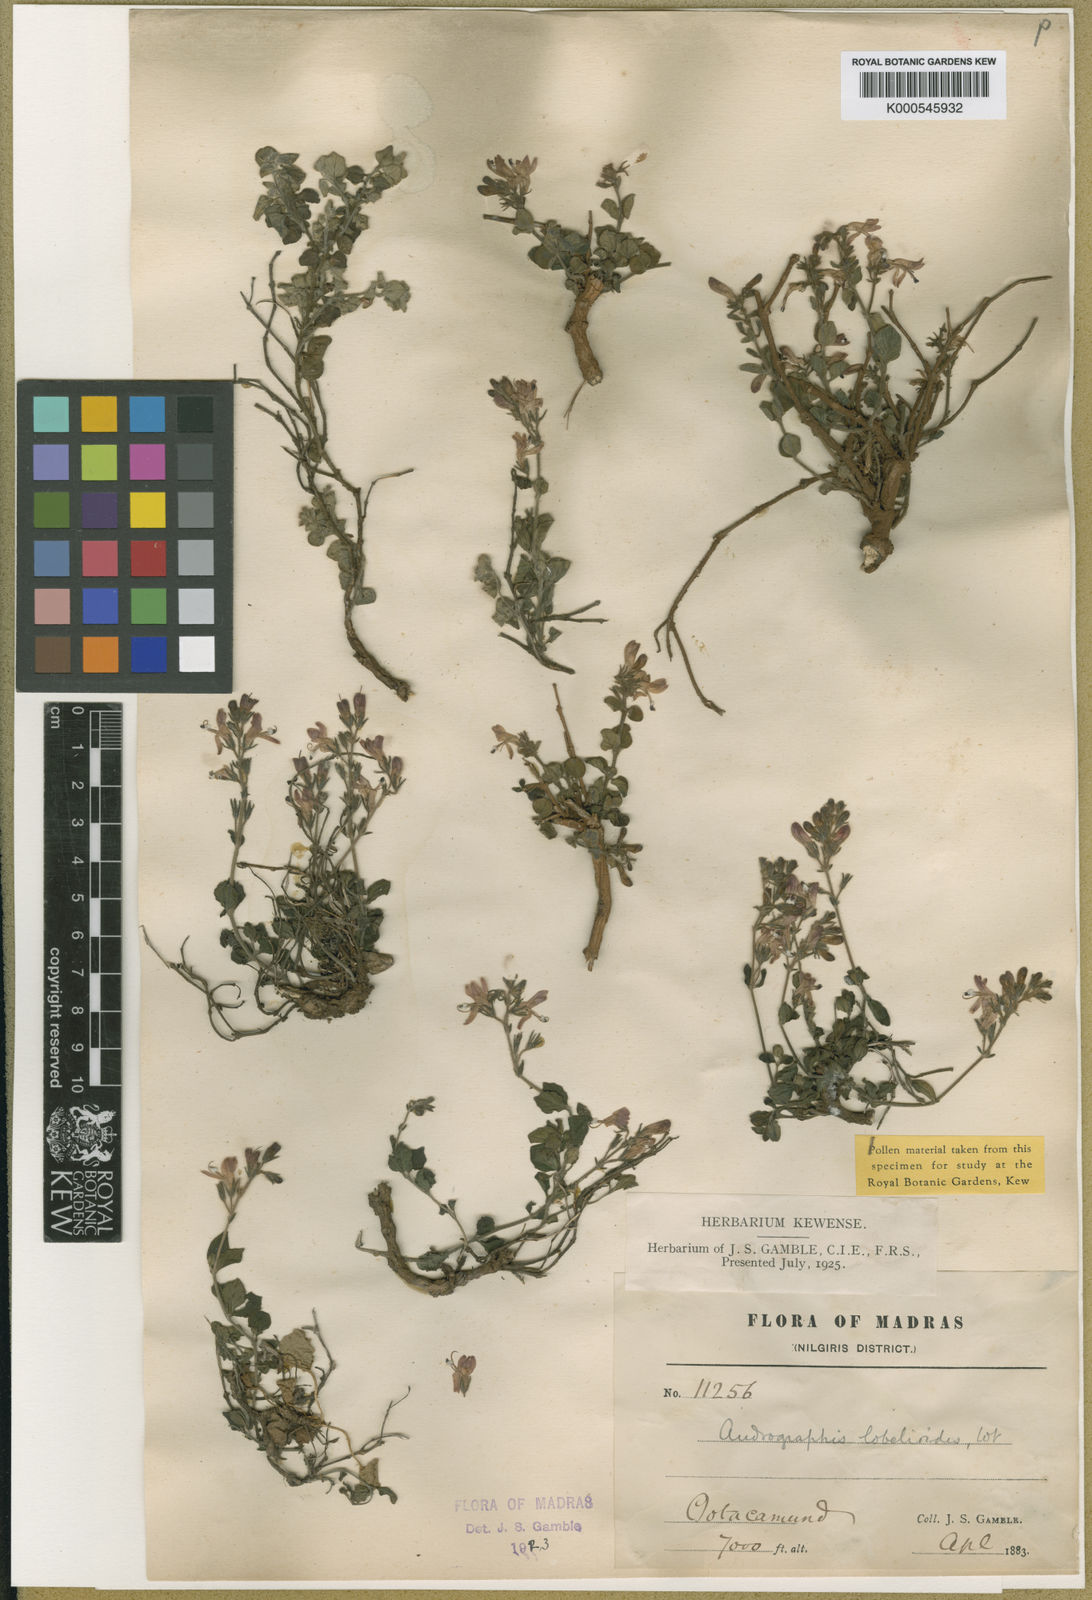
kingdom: Plantae
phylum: Tracheophyta
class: Magnoliopsida
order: Lamiales
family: Acanthaceae
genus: Andrographis
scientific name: Andrographis lobelioides
